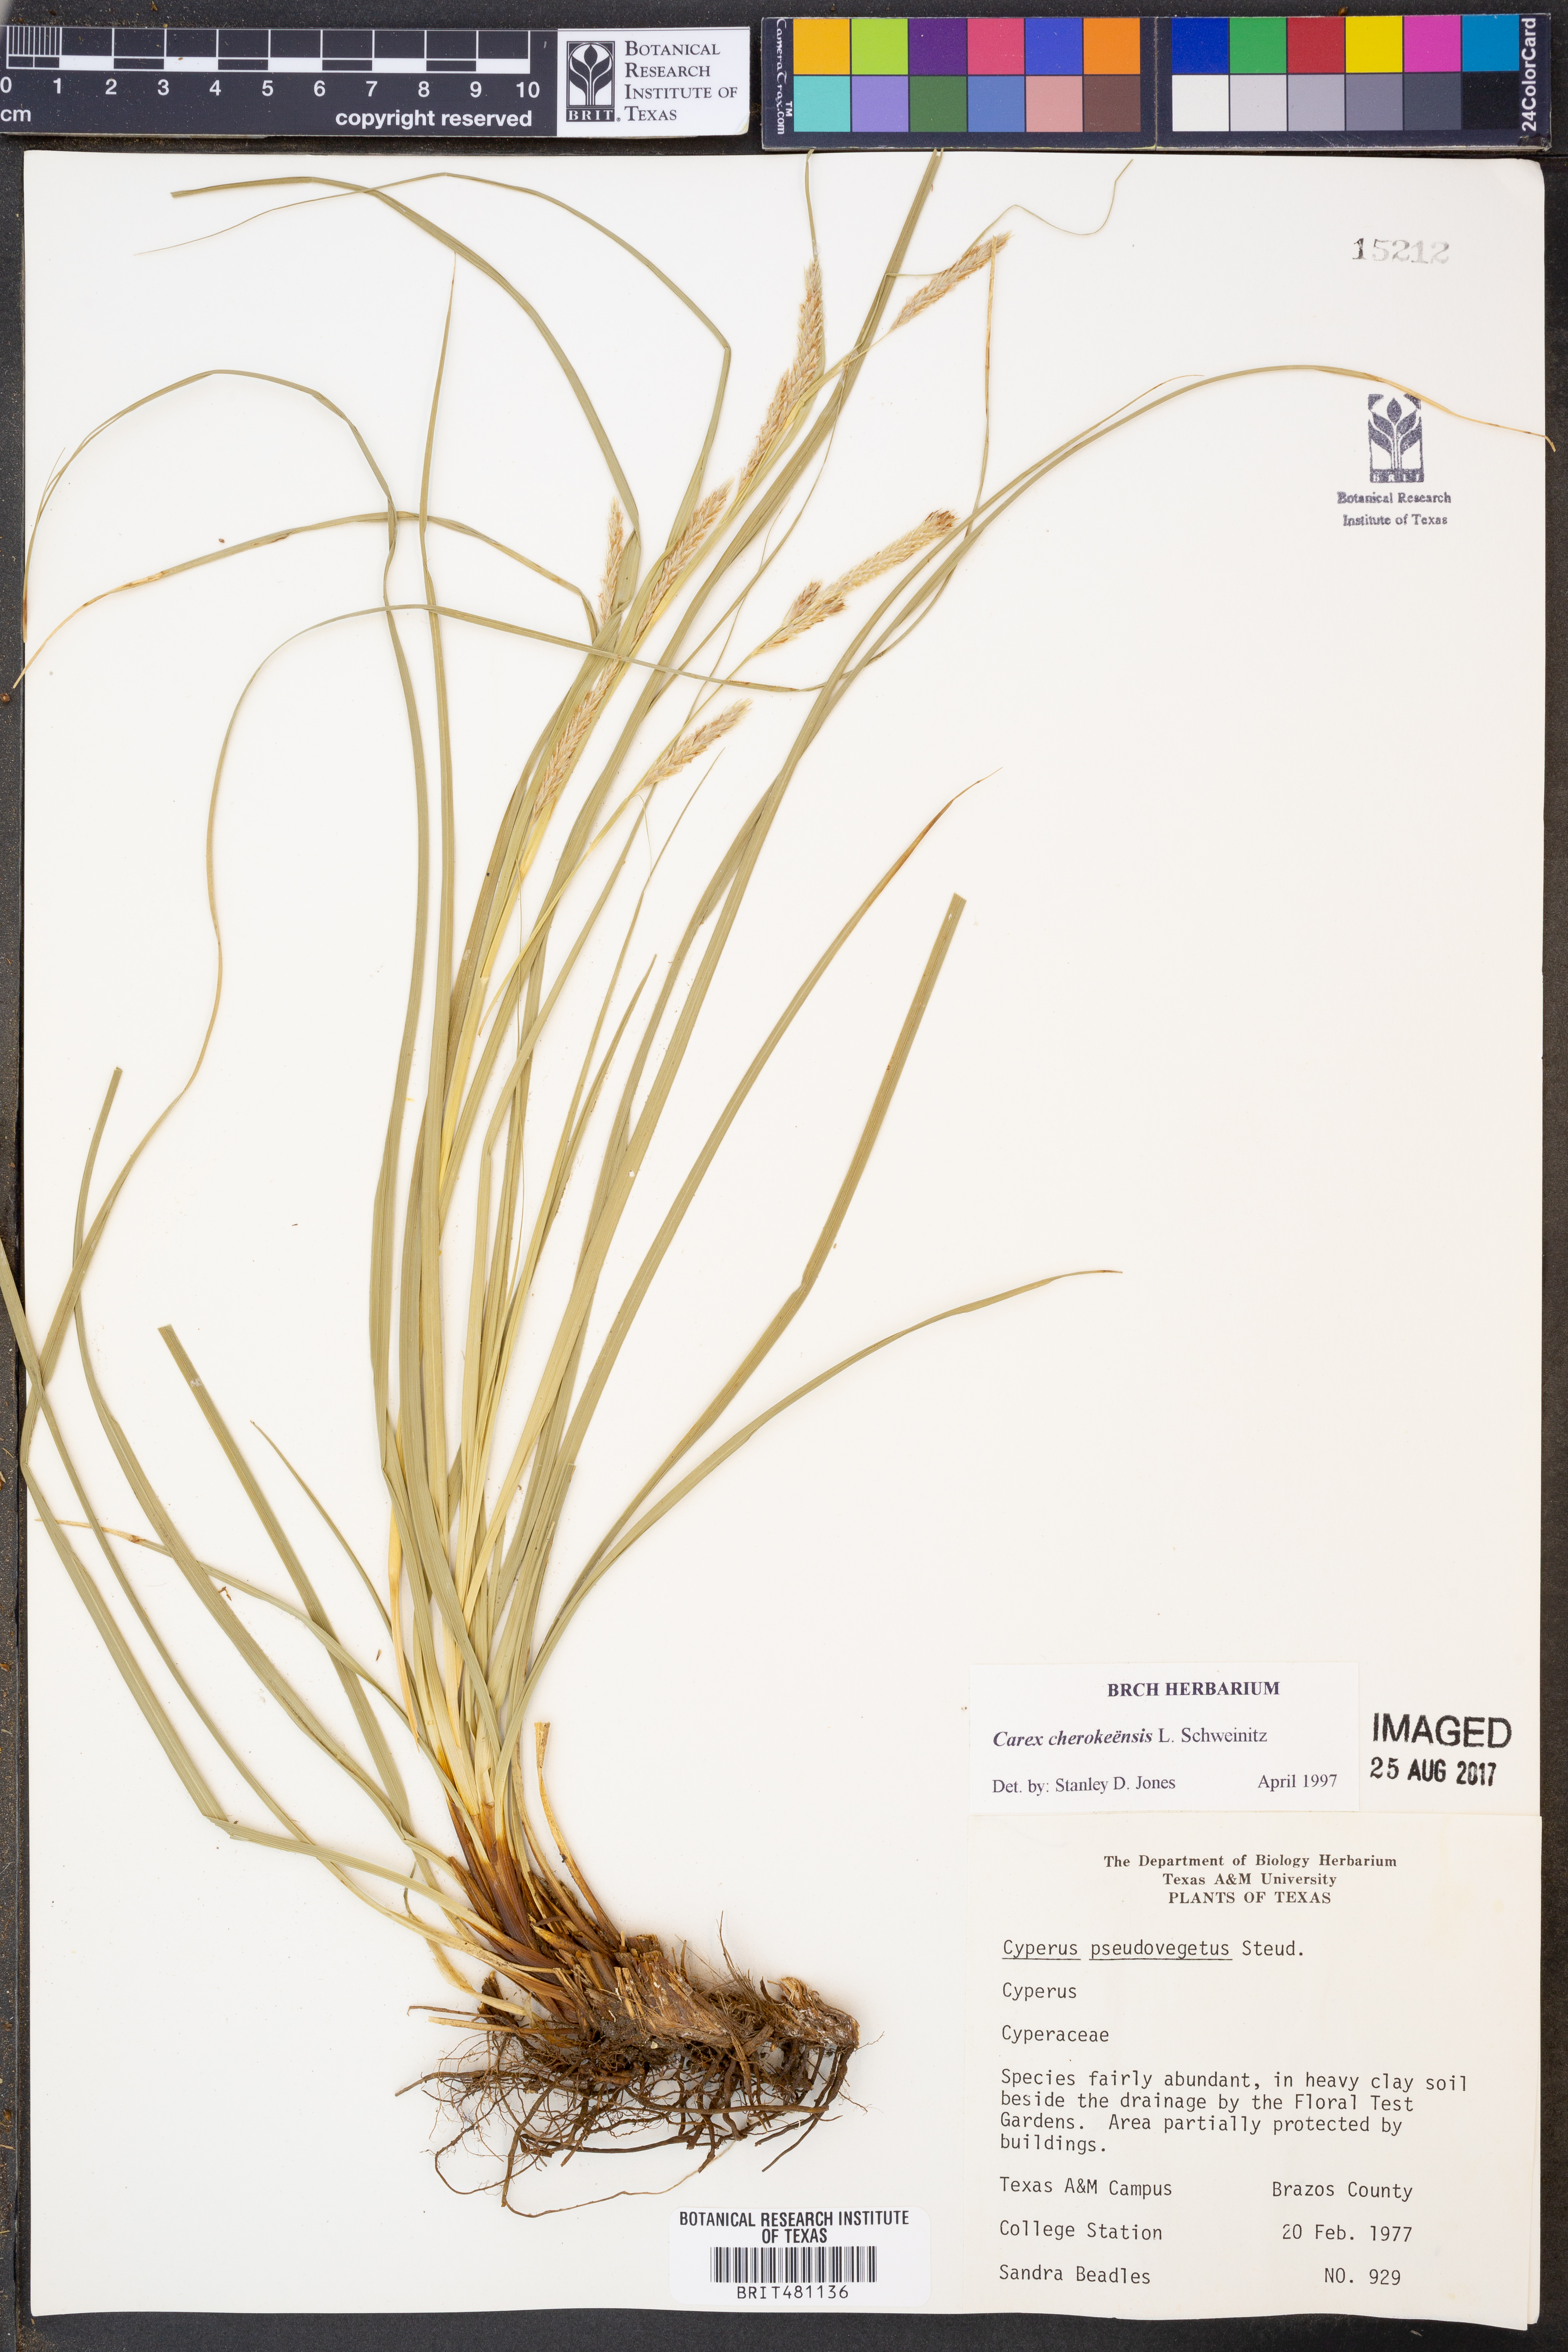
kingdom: Plantae
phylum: Tracheophyta
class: Liliopsida
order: Poales
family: Cyperaceae
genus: Carex
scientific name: Carex cherokeensis
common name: Cherokee sedge
